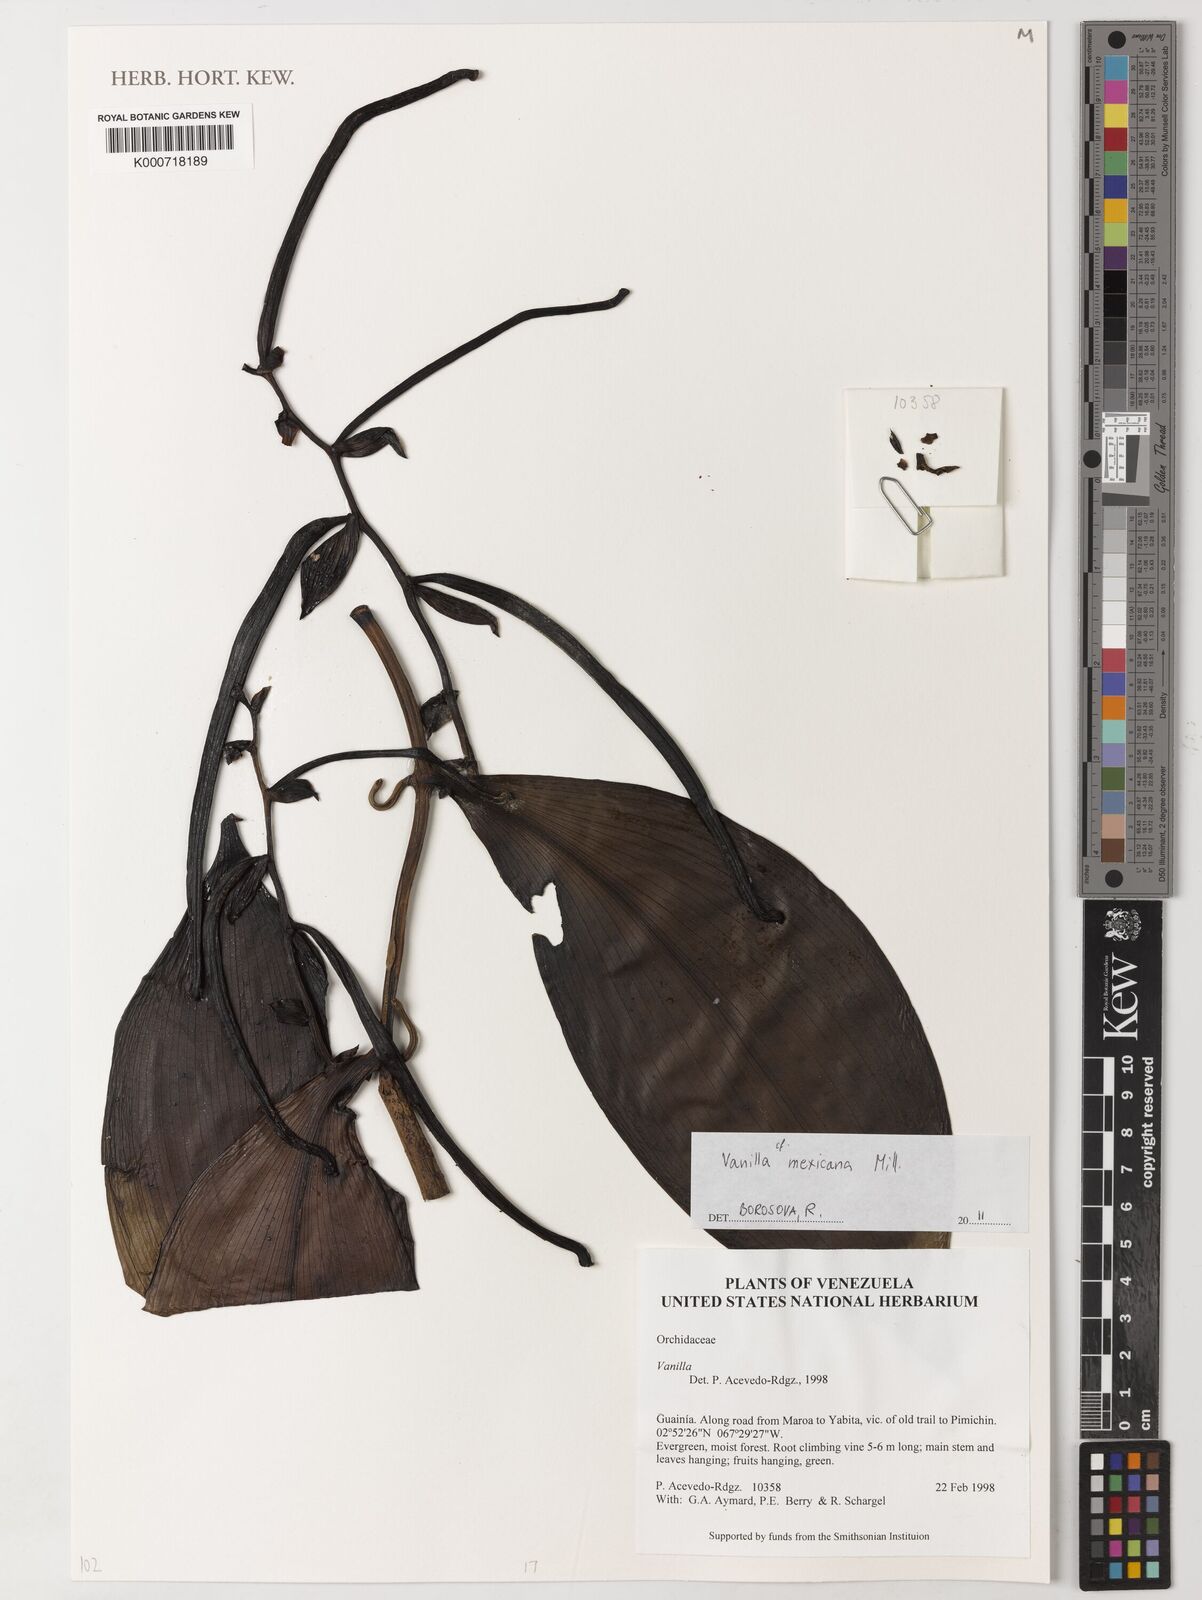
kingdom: Plantae
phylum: Tracheophyta
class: Liliopsida
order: Asparagales
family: Orchidaceae
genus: Vanilla
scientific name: Vanilla mexicana
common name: Mexican vanilla
